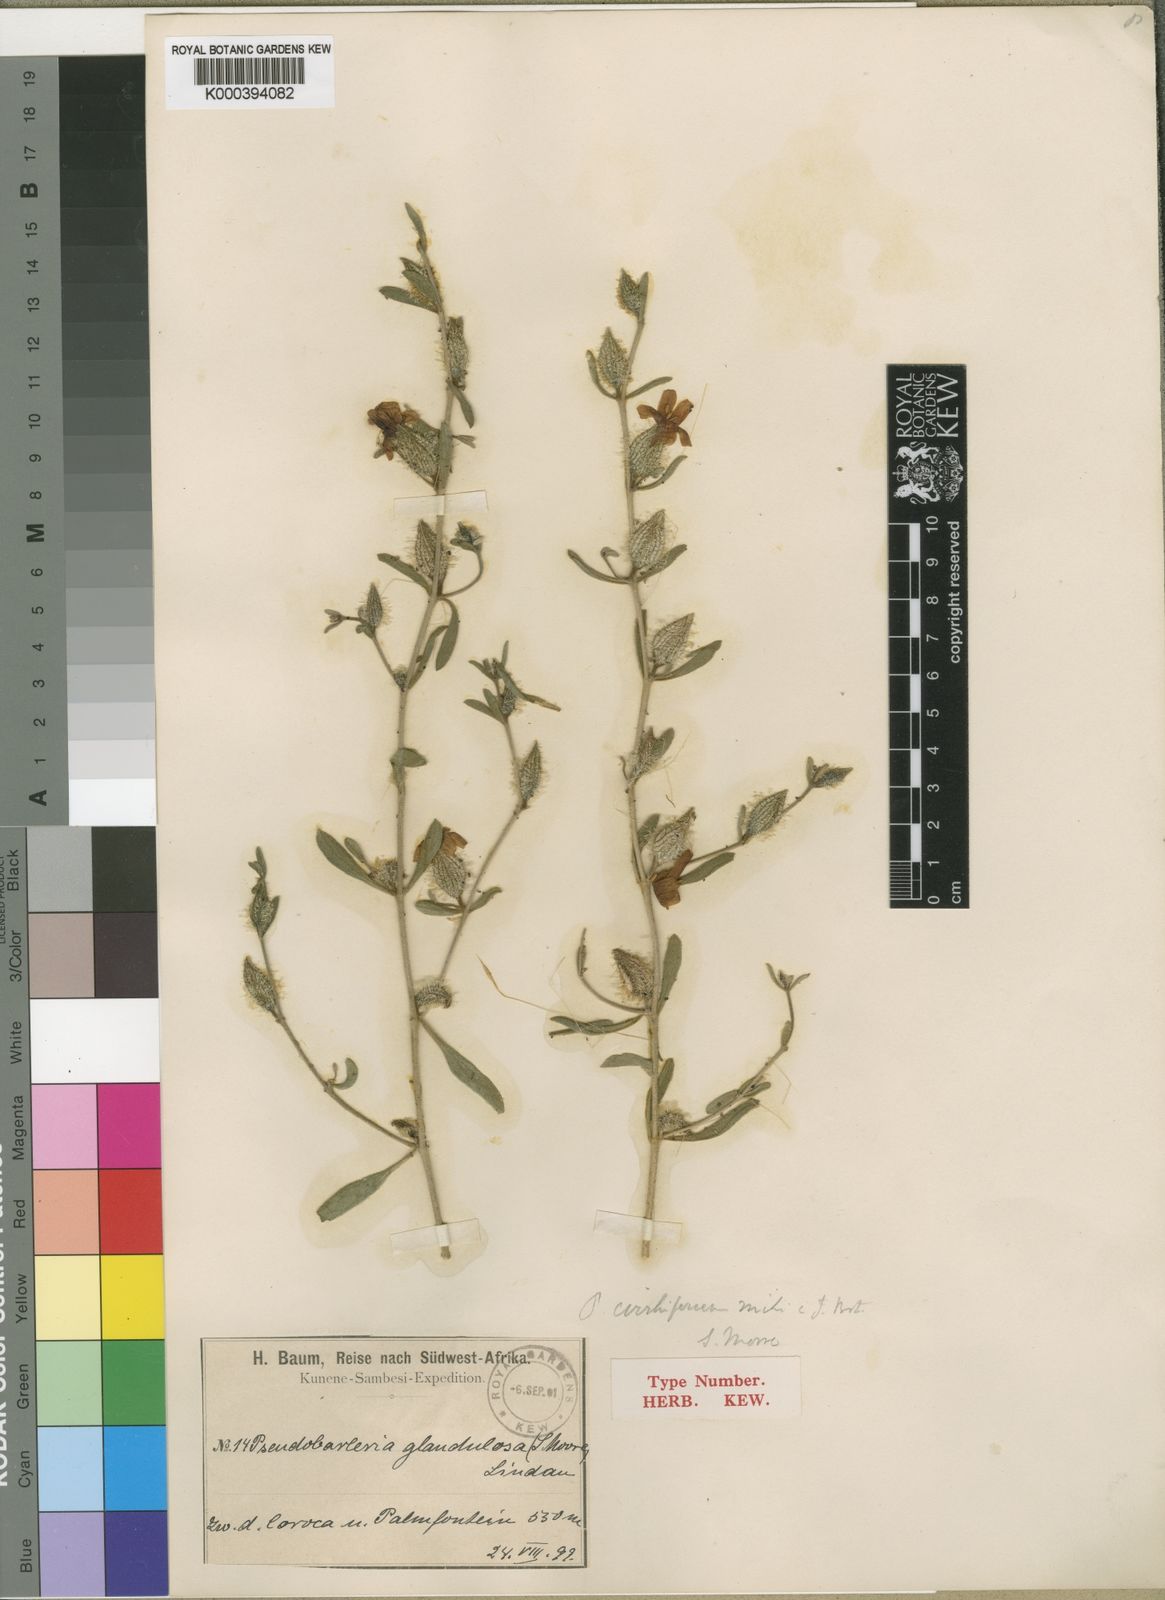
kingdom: Plantae
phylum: Tracheophyta
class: Magnoliopsida
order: Lamiales
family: Acanthaceae
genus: Petalidium
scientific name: Petalidium cirrhiferum
